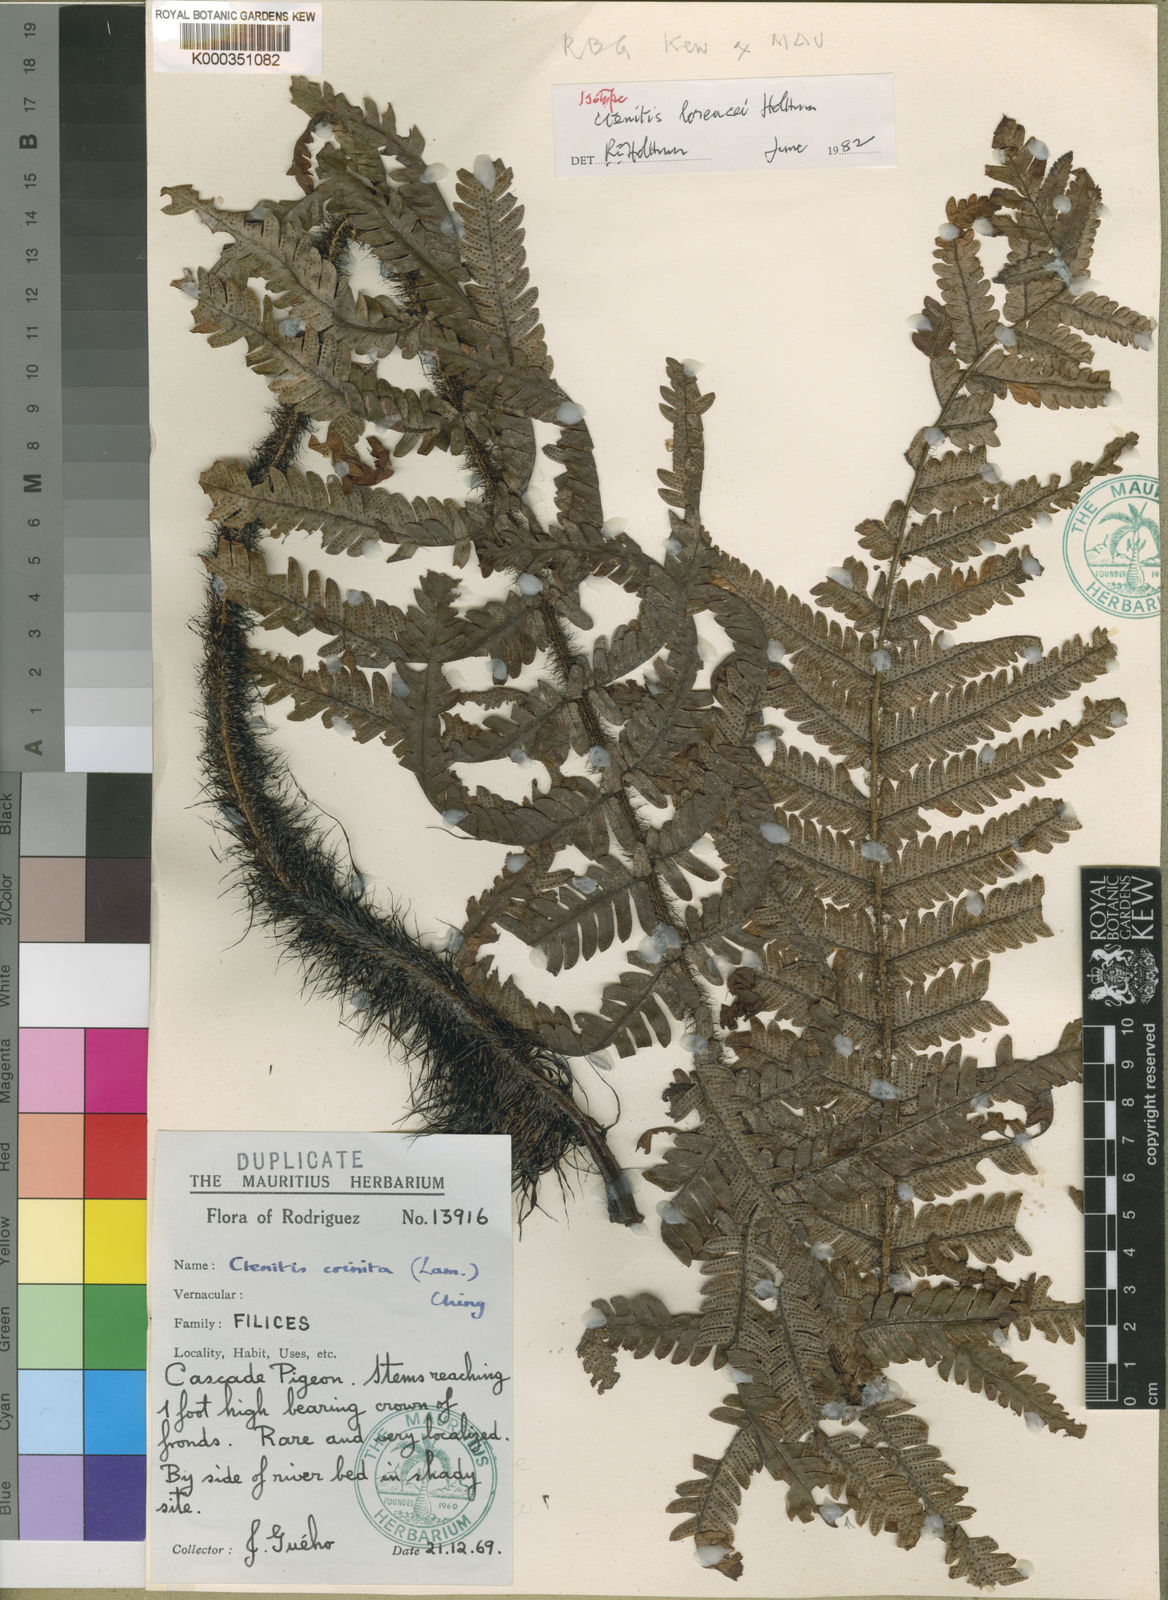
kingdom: Plantae
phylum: Tracheophyta
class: Polypodiopsida
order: Polypodiales
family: Dryopteridaceae
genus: Ctenitis
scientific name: Ctenitis lorencei
